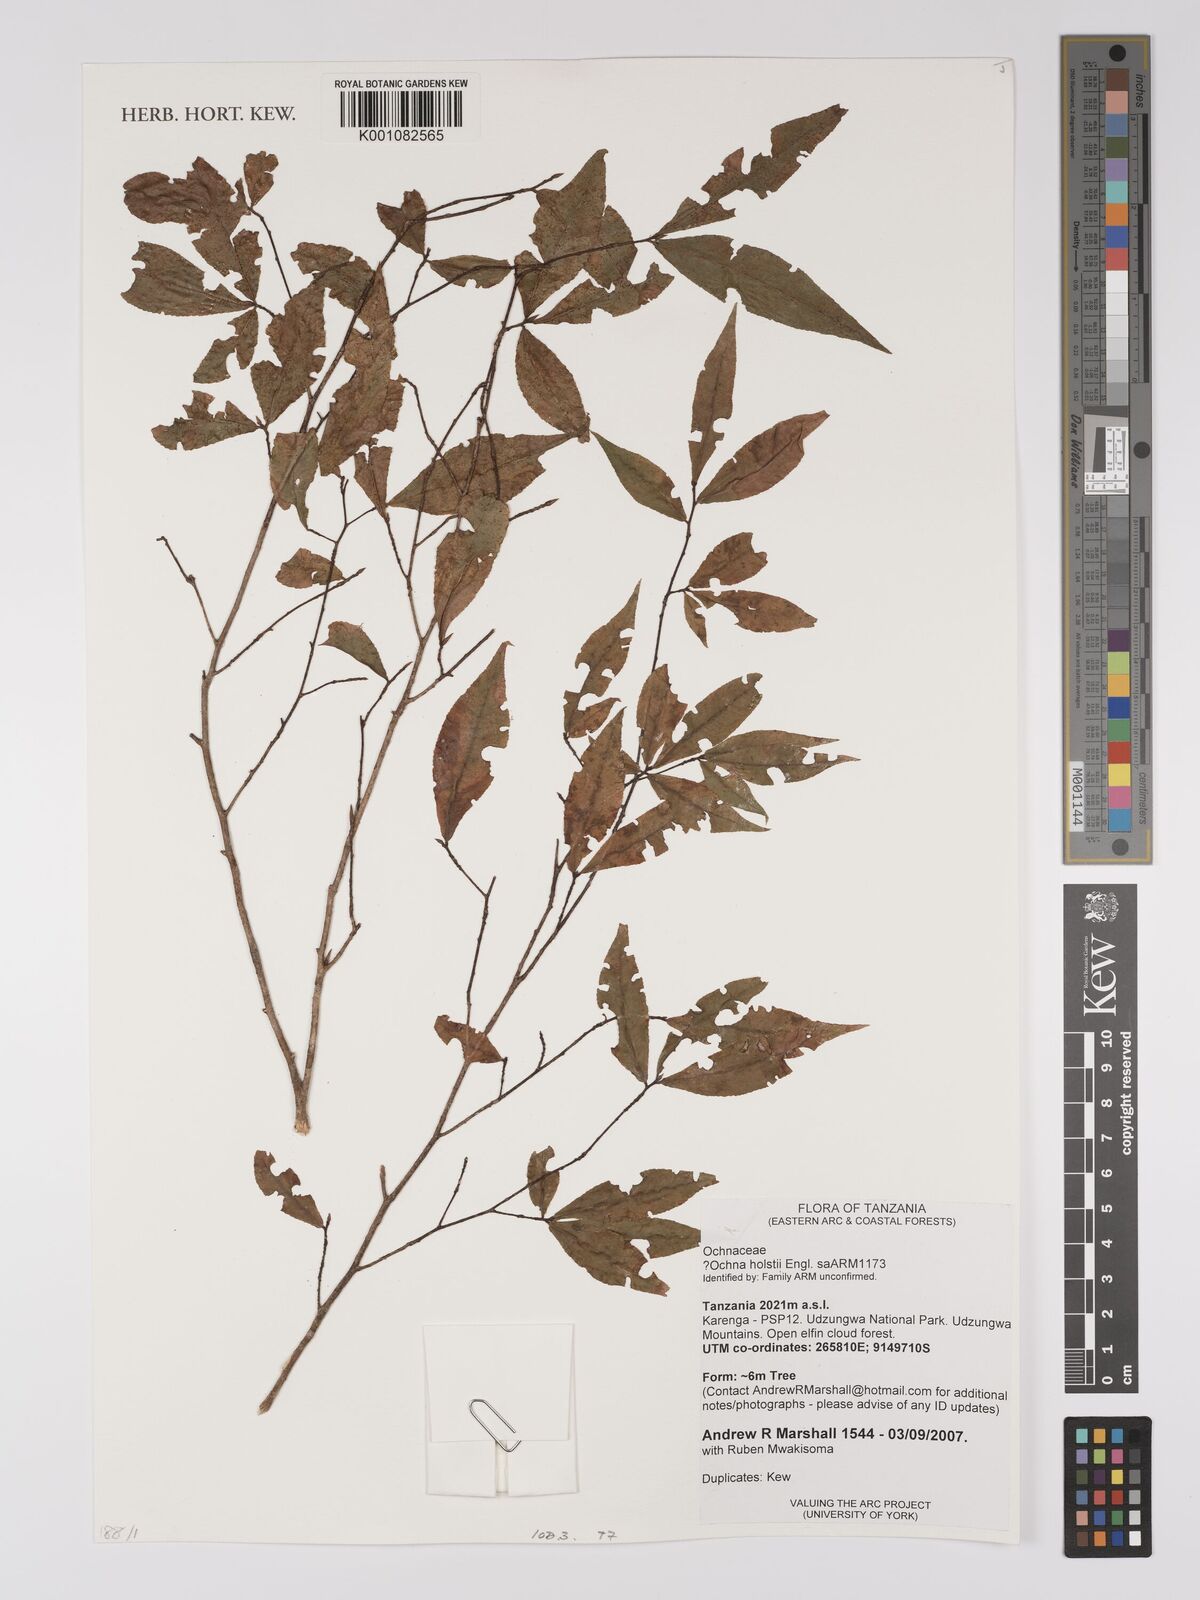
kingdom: Plantae
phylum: Tracheophyta
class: Magnoliopsida
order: Malpighiales
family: Ochnaceae
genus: Ochna
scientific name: Ochna holstii
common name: Red ironwood
